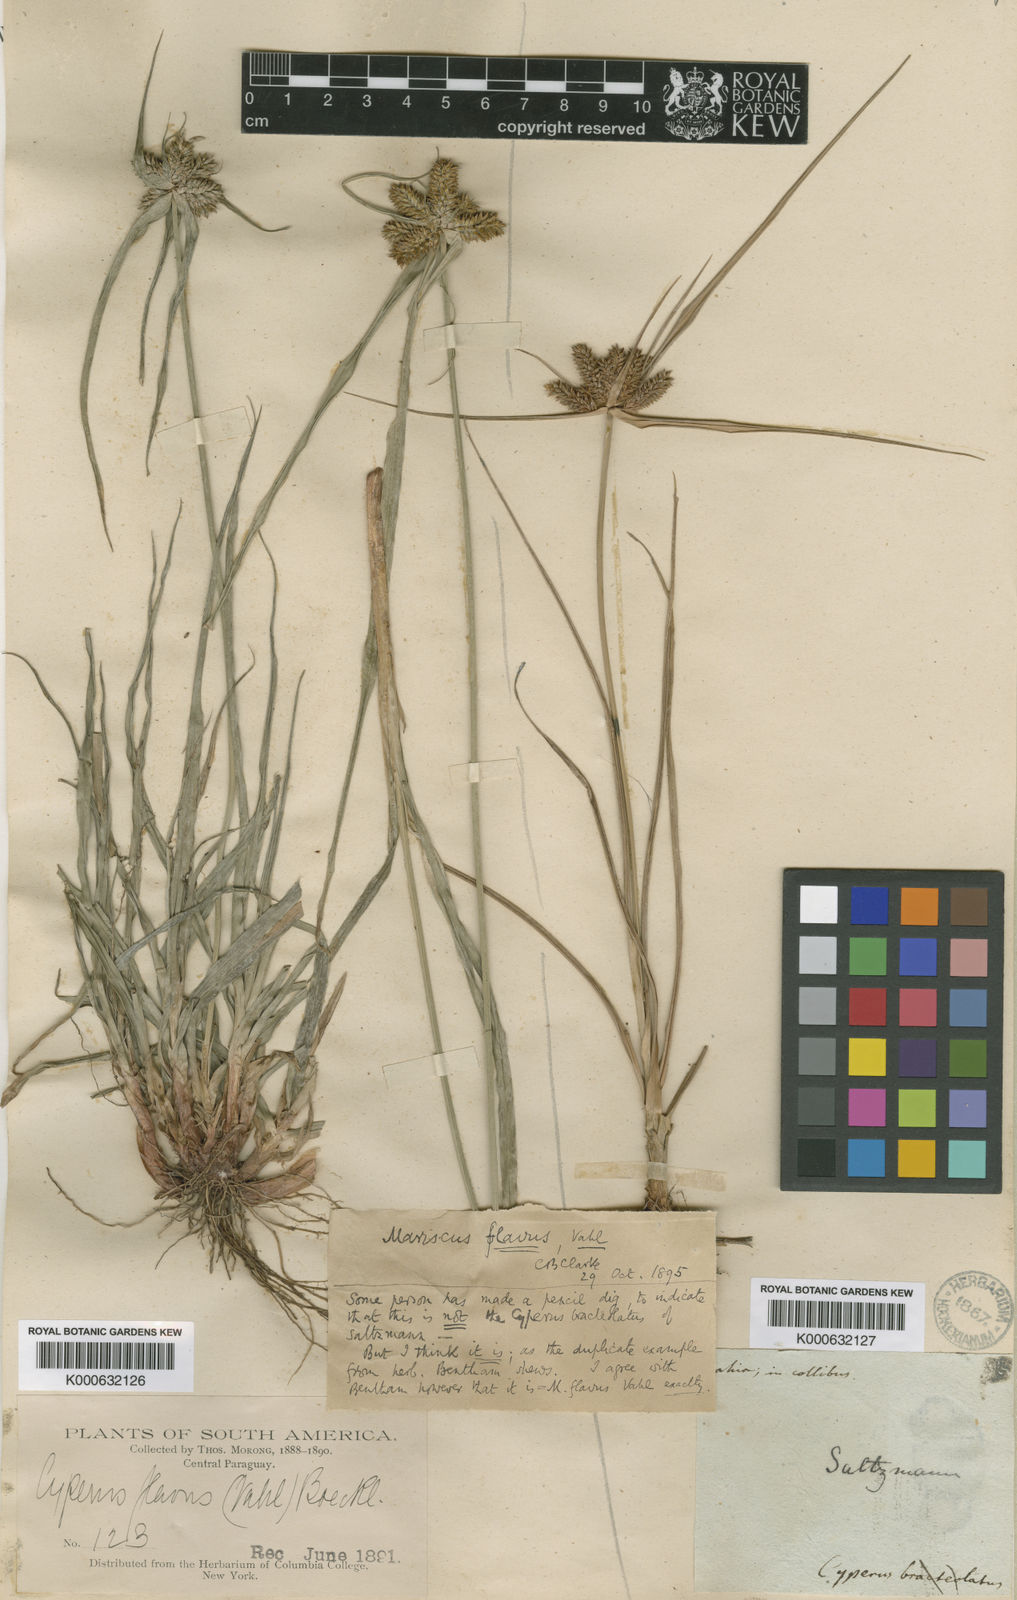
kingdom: Plantae
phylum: Tracheophyta
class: Liliopsida
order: Poales
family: Cyperaceae
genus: Cyperus
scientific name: Cyperus
